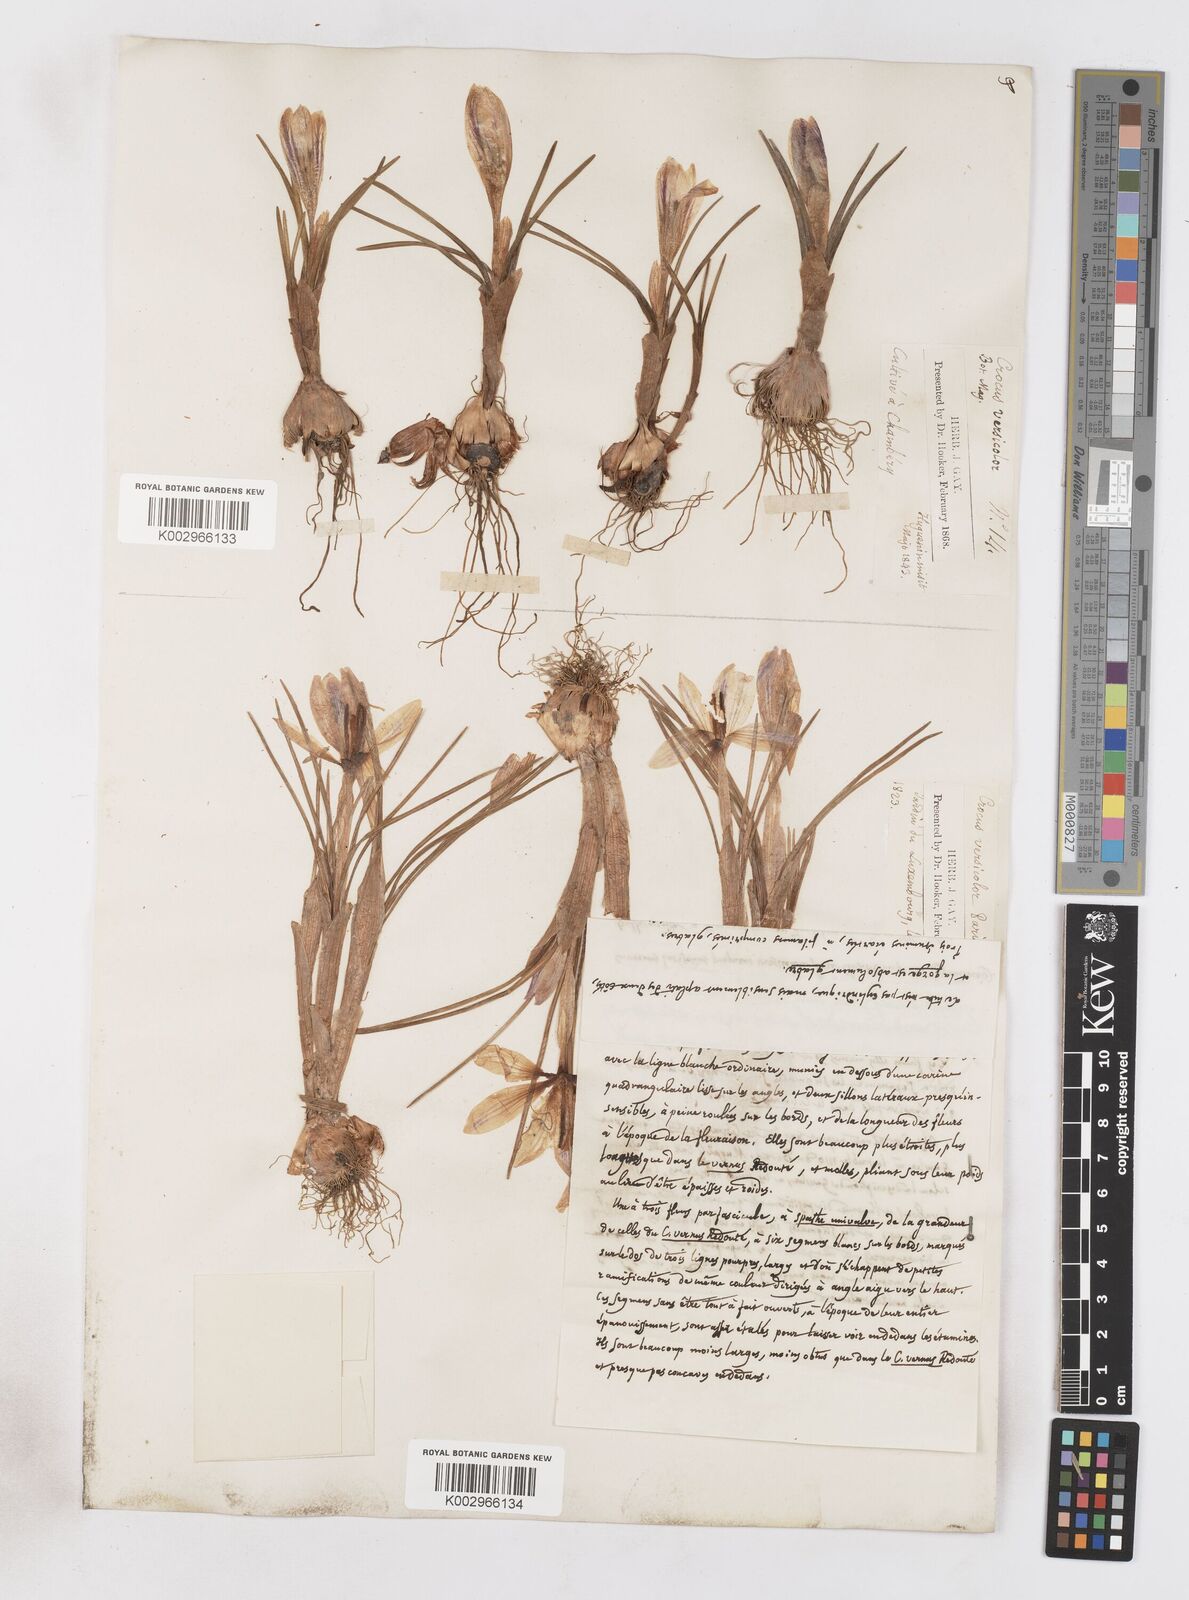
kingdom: Plantae
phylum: Tracheophyta
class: Liliopsida
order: Asparagales
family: Iridaceae
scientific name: Iridaceae
